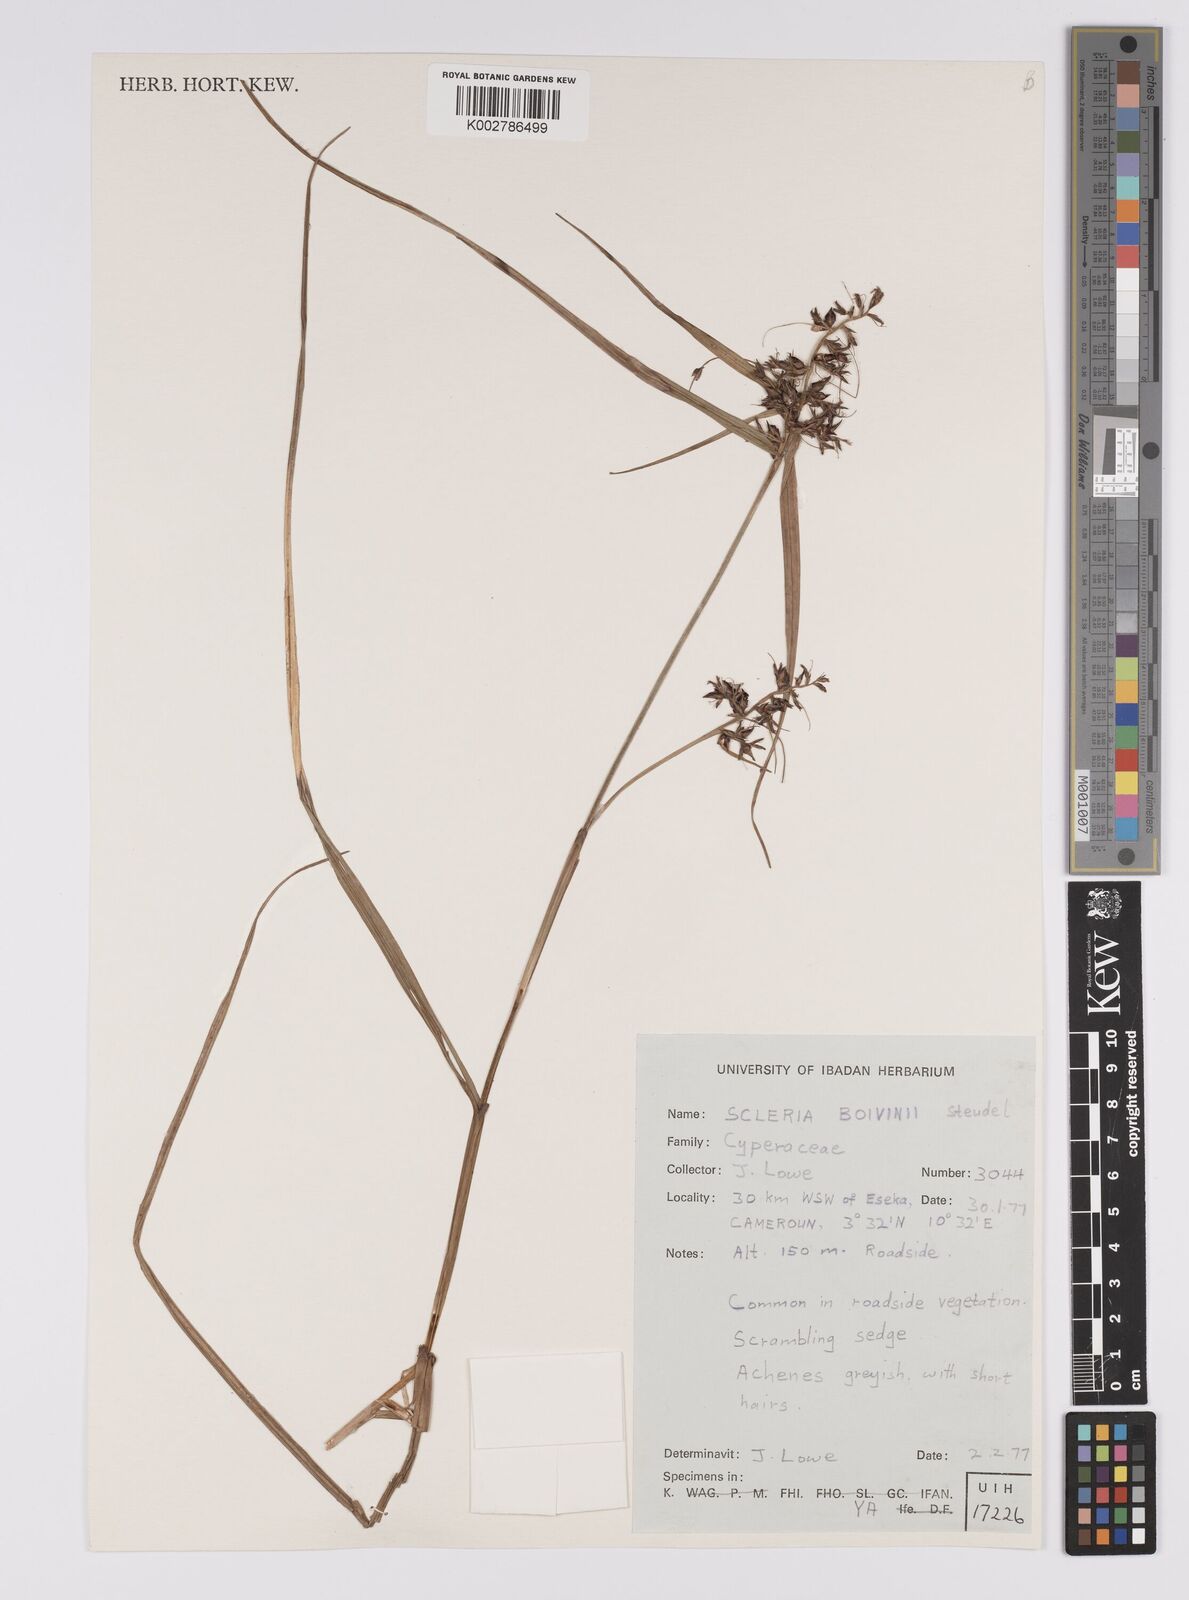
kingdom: Plantae
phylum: Tracheophyta
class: Liliopsida
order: Poales
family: Cyperaceae
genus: Scleria
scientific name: Scleria boivinii
